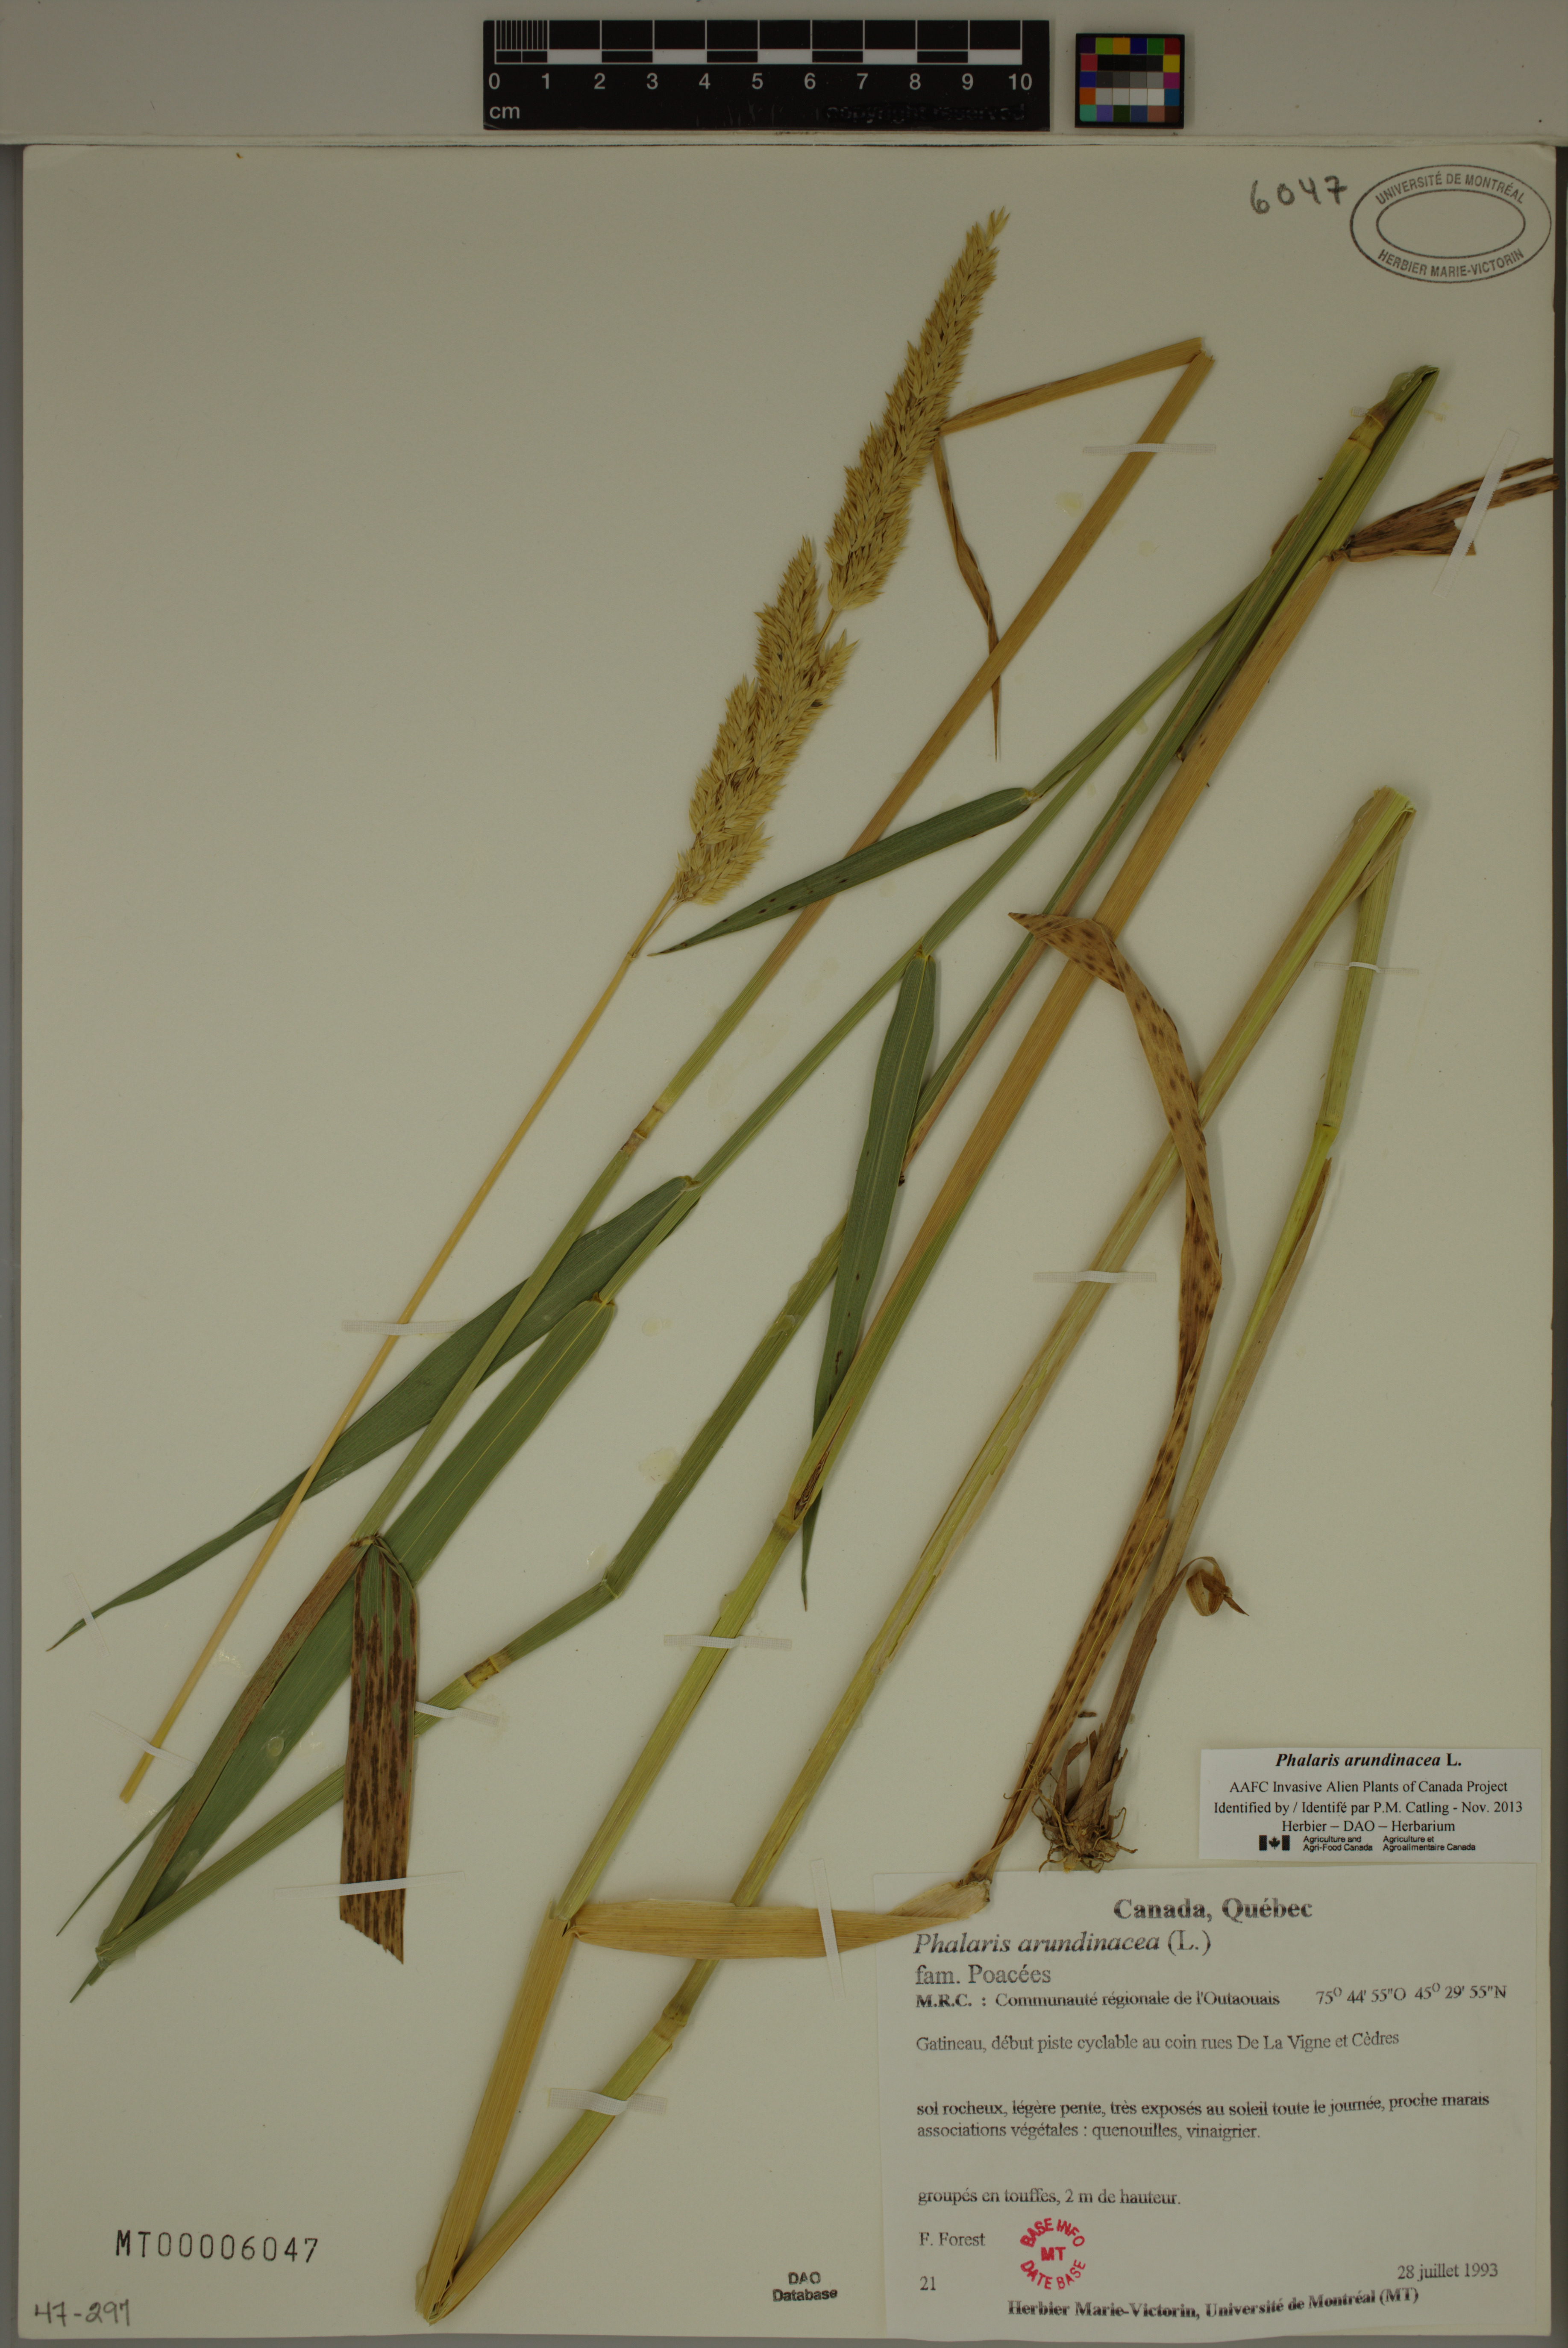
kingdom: Plantae
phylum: Tracheophyta
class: Liliopsida
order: Poales
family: Poaceae
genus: Phalaris
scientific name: Phalaris arundinacea
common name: Reed canary-grass
